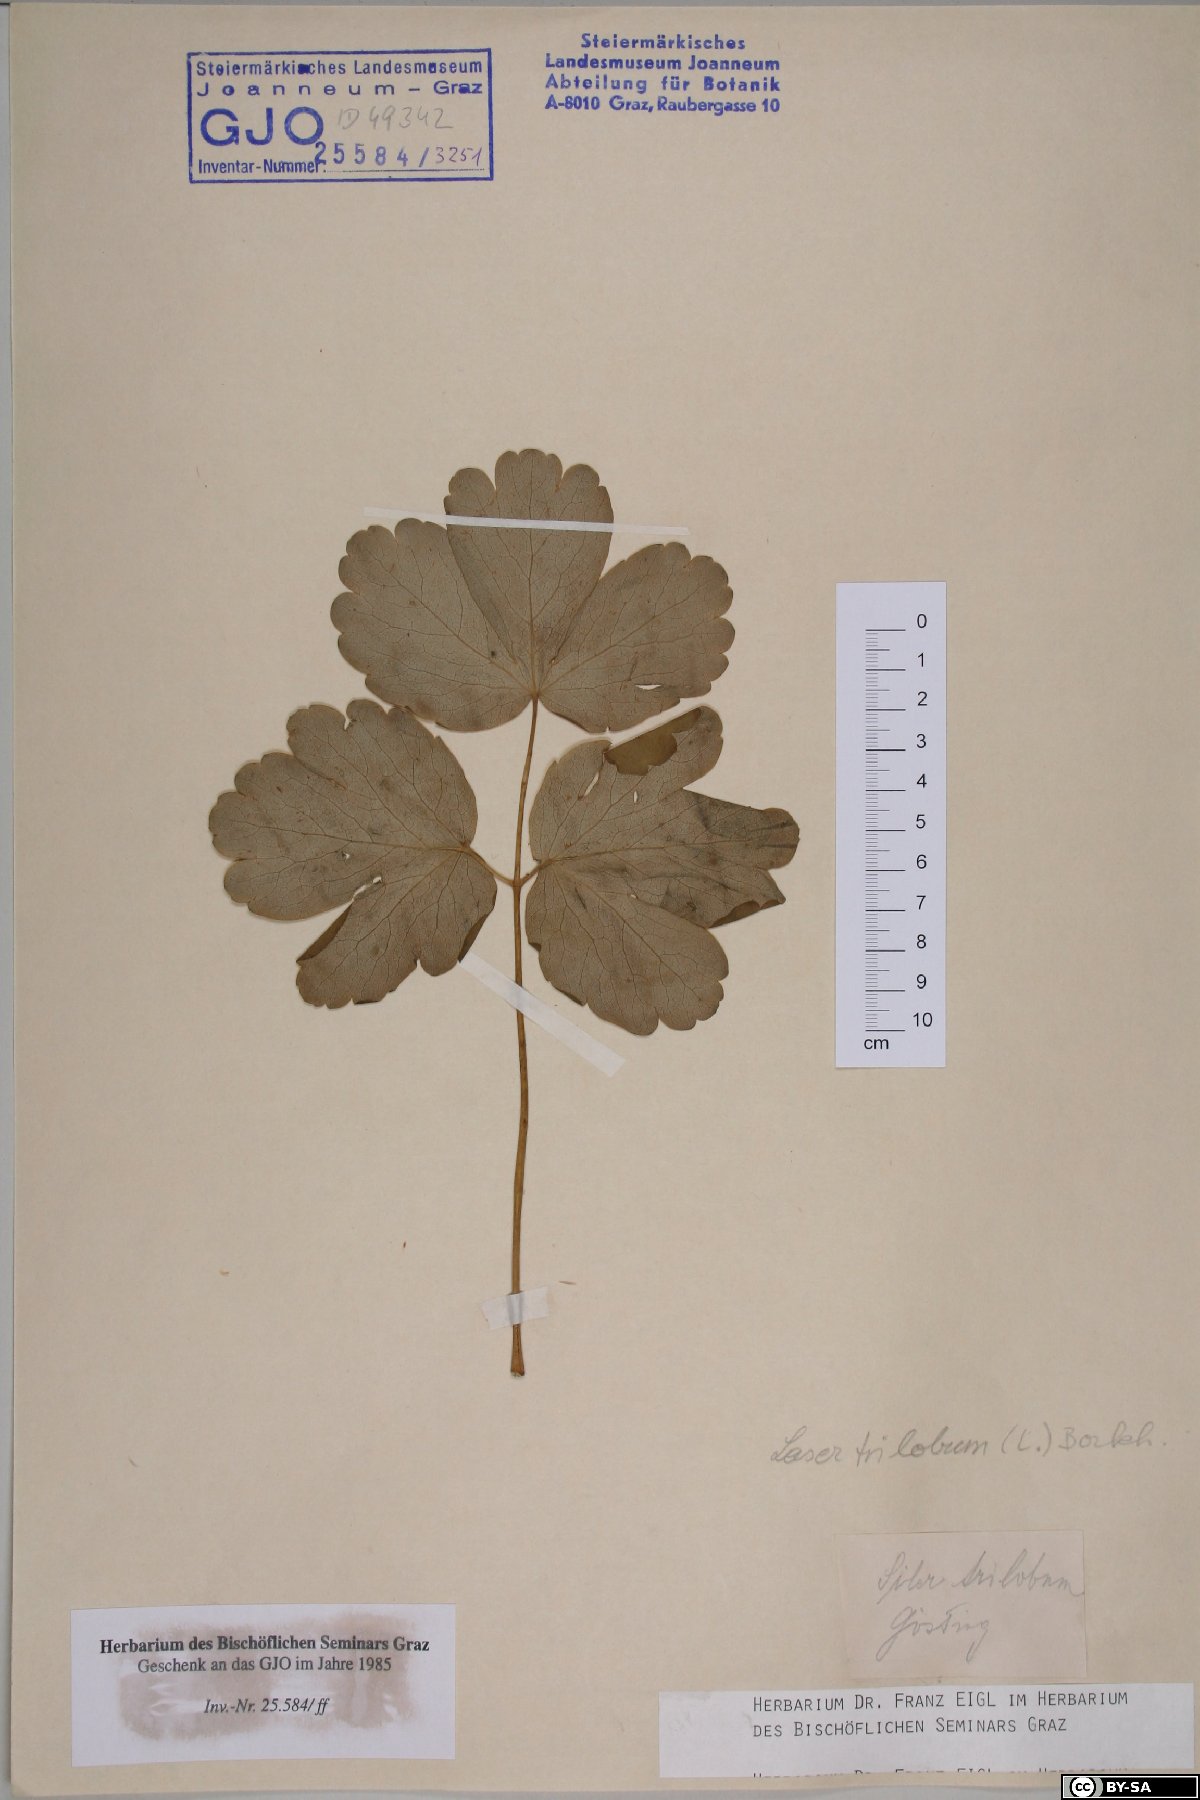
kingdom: Plantae
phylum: Tracheophyta
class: Magnoliopsida
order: Apiales
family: Apiaceae
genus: Laser
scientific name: Laser trilobum
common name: Laser
